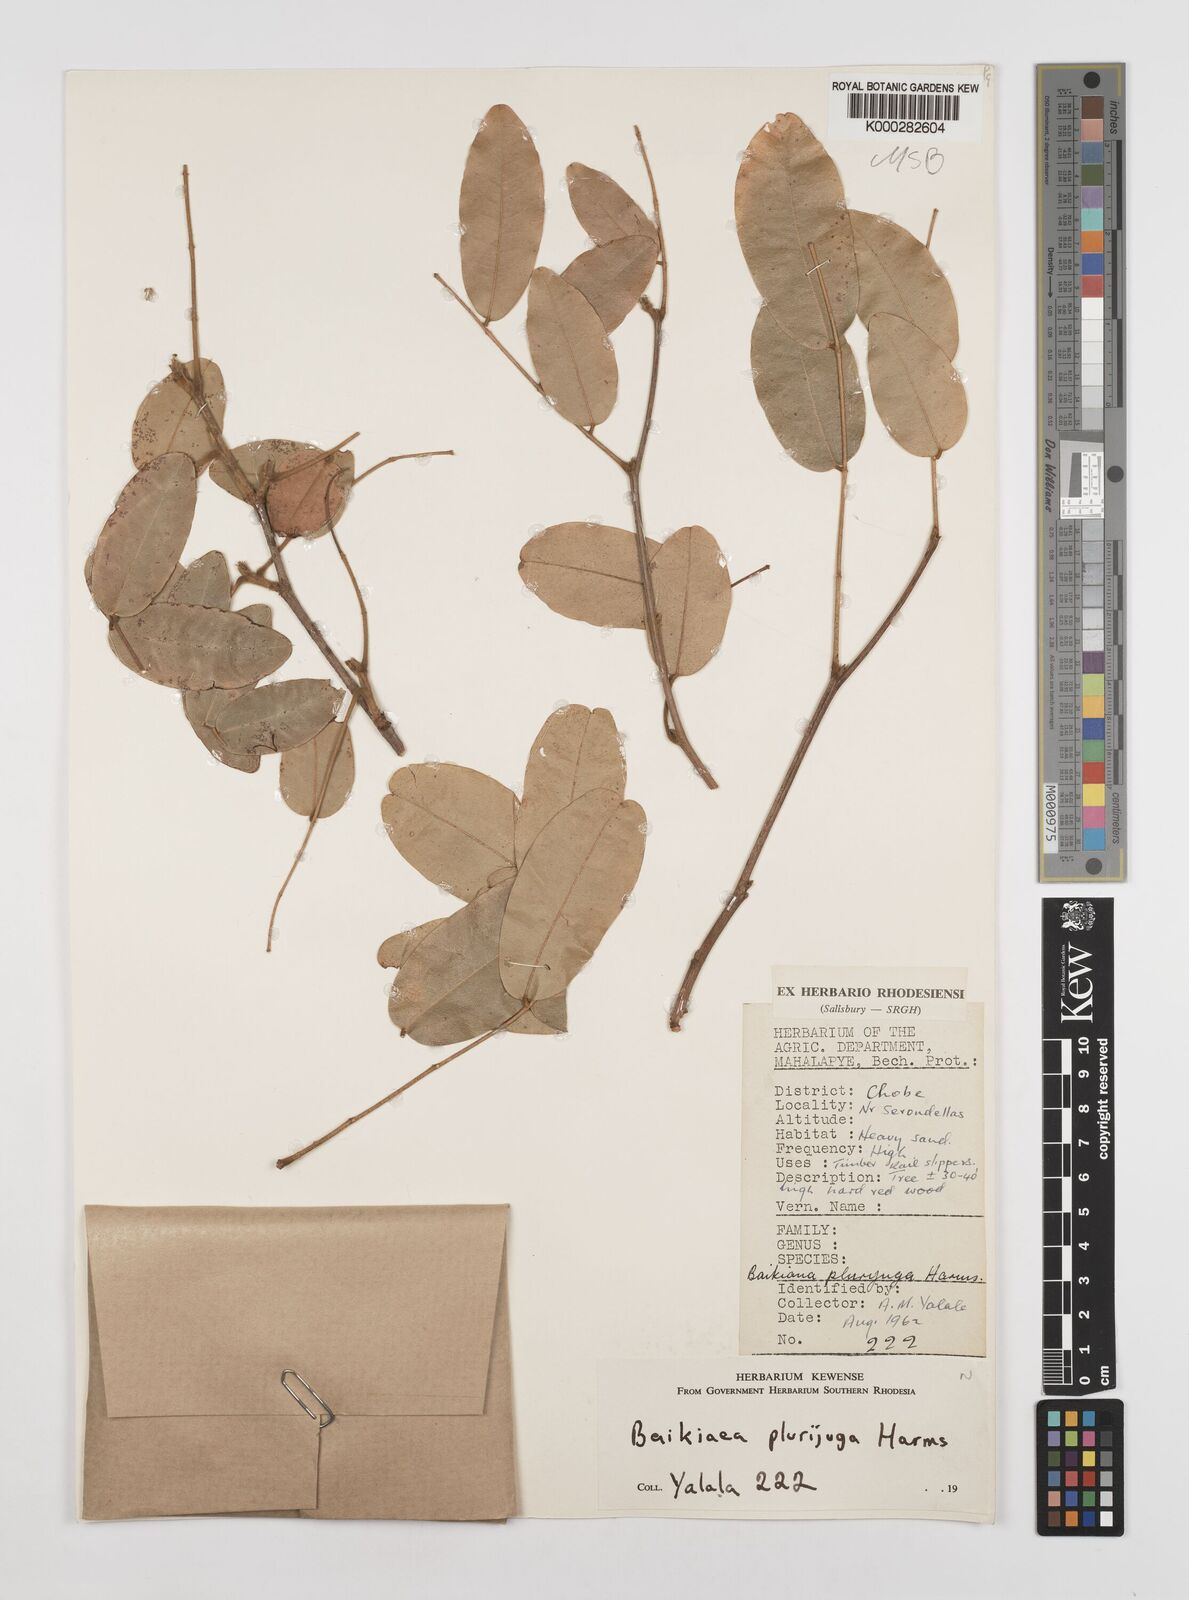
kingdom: Plantae
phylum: Tracheophyta
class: Magnoliopsida
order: Fabales
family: Fabaceae
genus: Baikiaea
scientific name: Baikiaea plurijuga
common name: Rhodesian-teak
